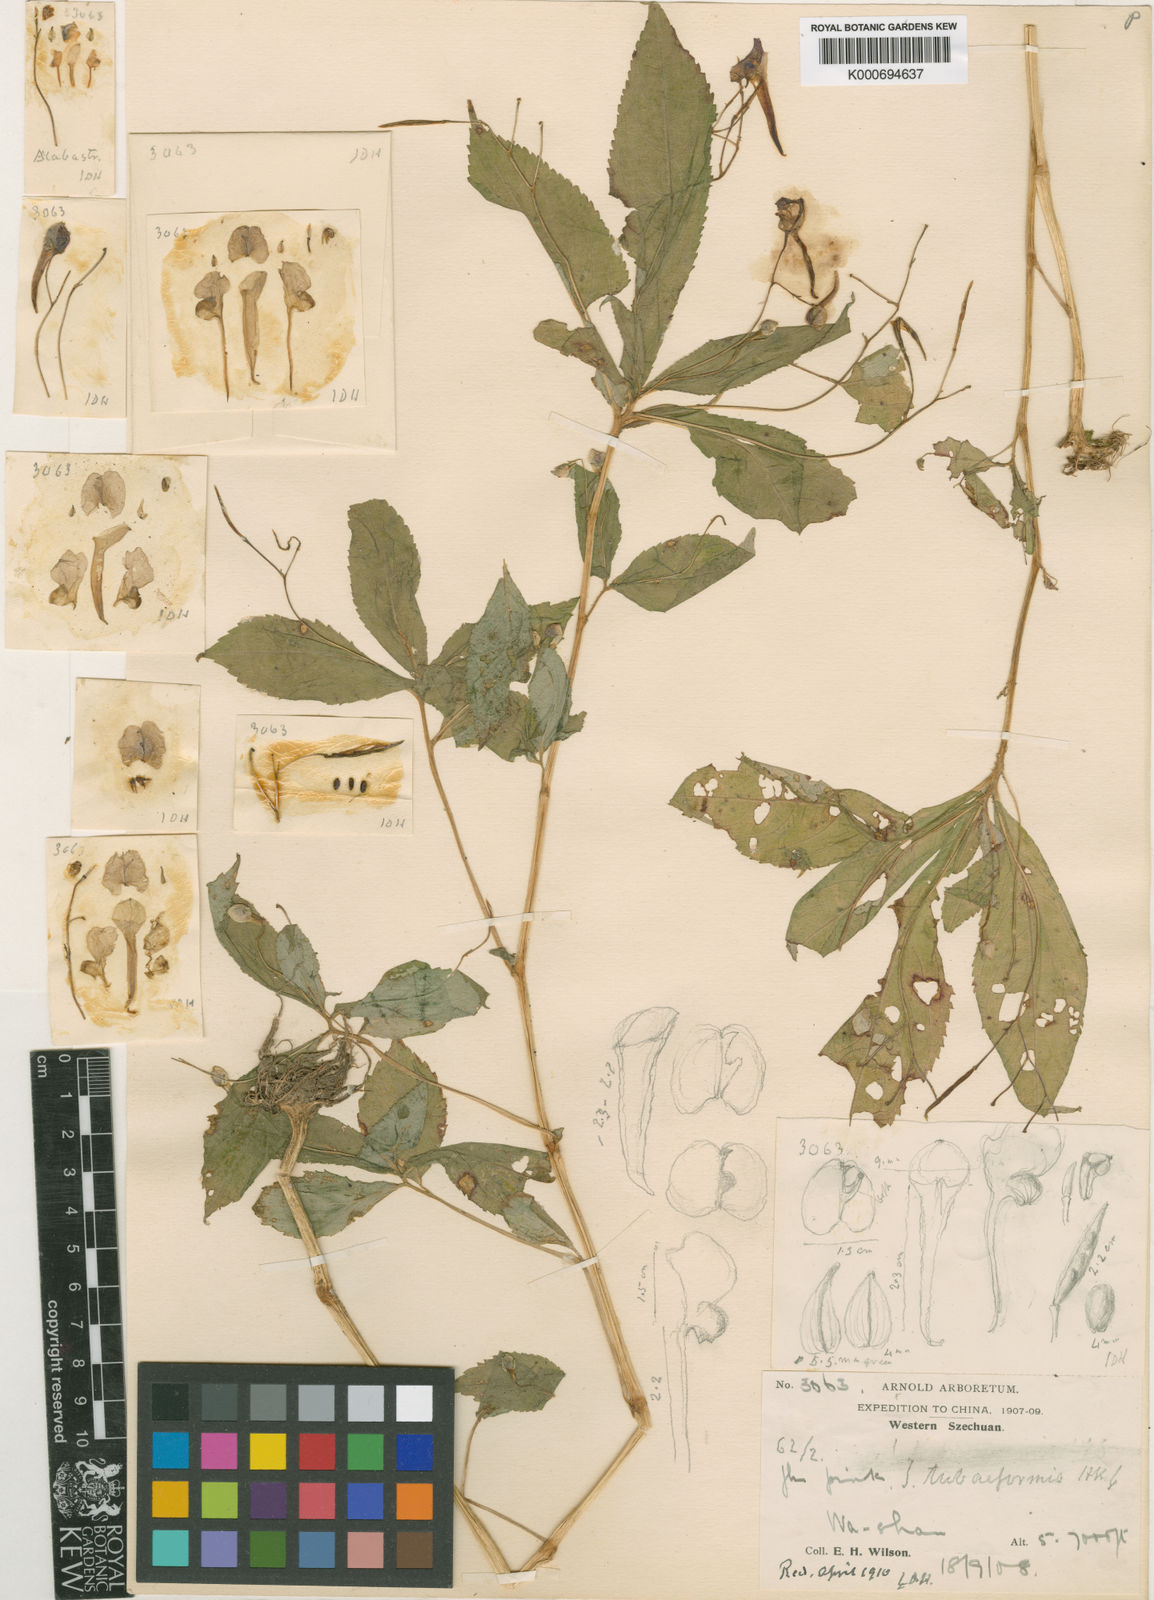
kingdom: Plantae
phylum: Tracheophyta
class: Magnoliopsida
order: Ericales
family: Balsaminaceae
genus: Impatiens
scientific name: Impatiens faberi
